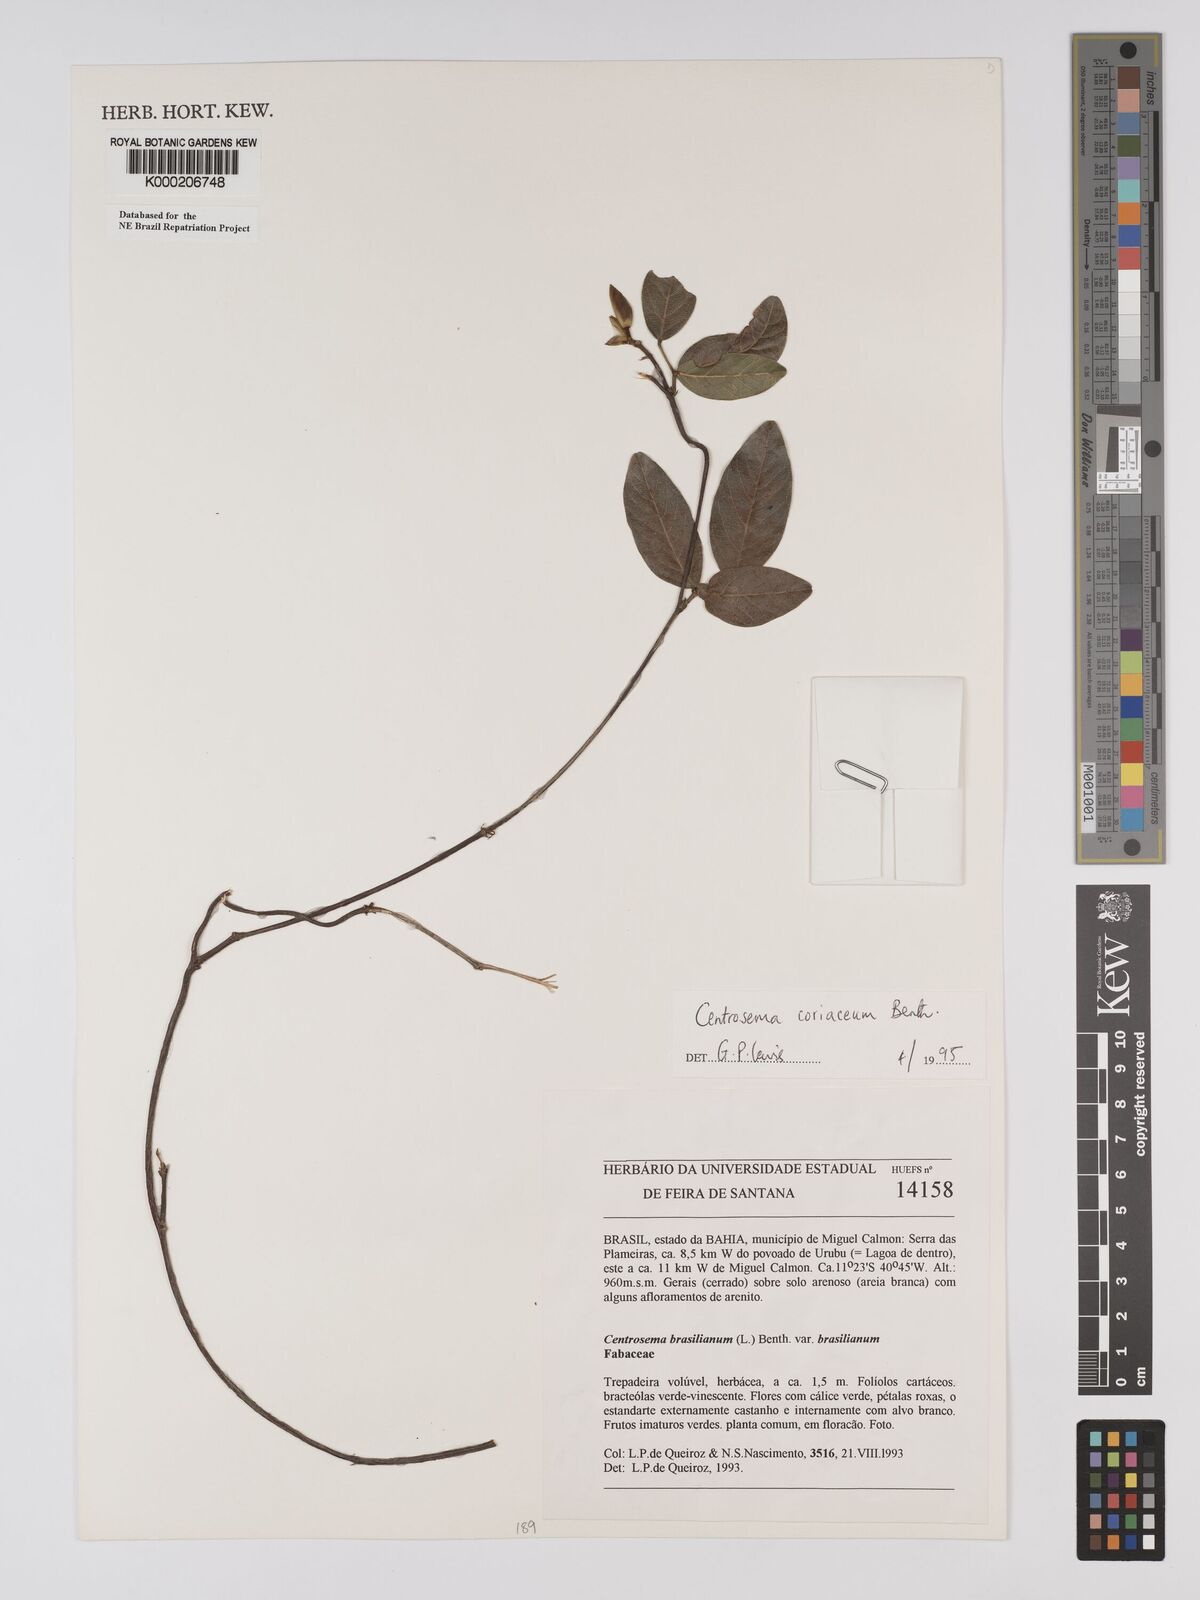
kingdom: Plantae
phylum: Tracheophyta
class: Magnoliopsida
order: Fabales
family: Fabaceae
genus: Centrosema
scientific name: Centrosema coriaceum
